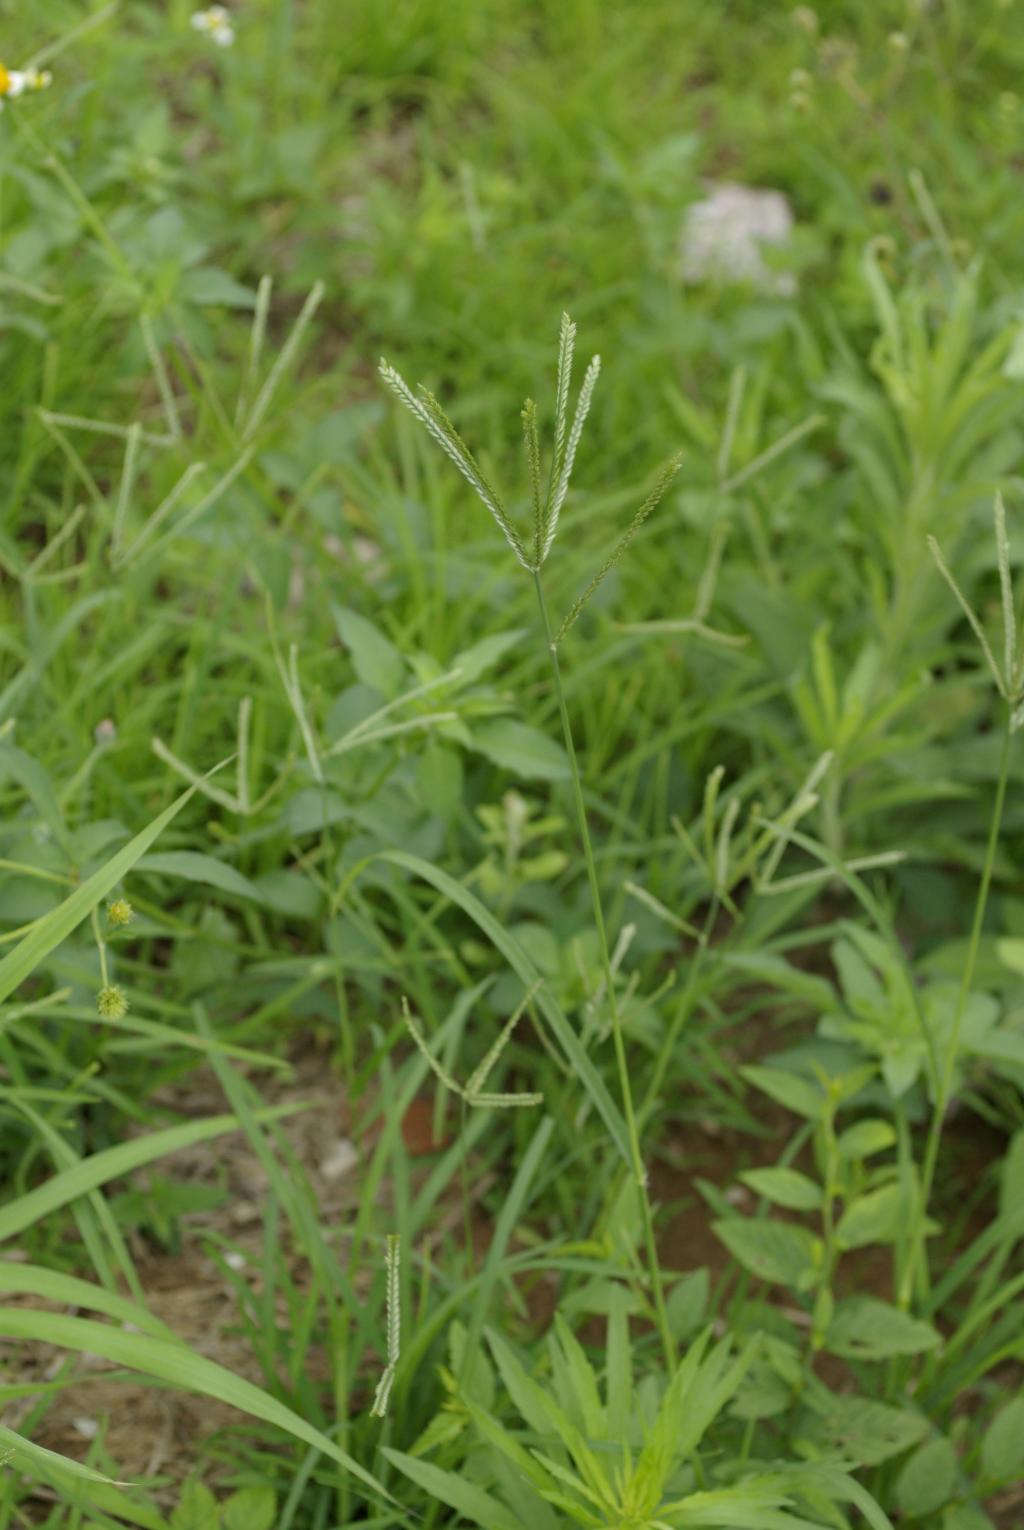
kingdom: Plantae
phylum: Tracheophyta
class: Liliopsida
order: Poales
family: Poaceae
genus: Eleusine
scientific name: Eleusine indica
